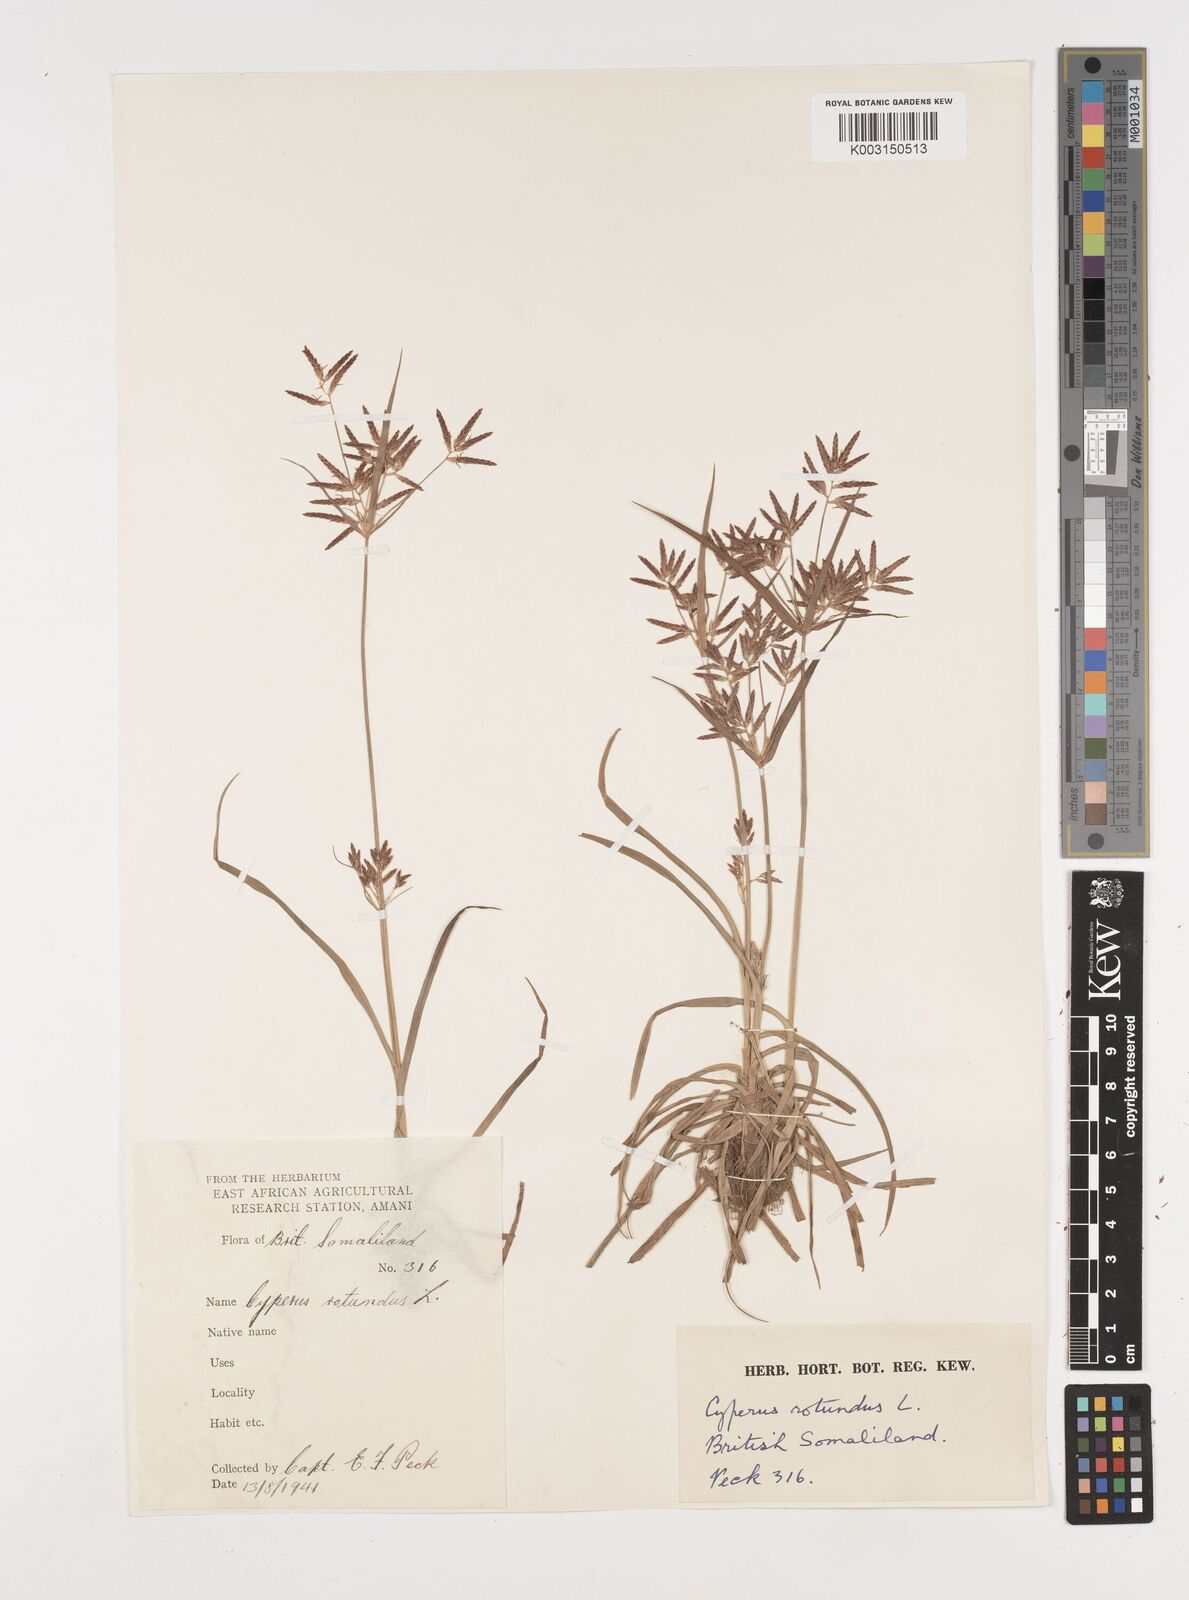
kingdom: Plantae
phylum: Tracheophyta
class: Liliopsida
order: Poales
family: Cyperaceae
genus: Cyperus
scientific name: Cyperus rotundus
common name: Nutgrass
